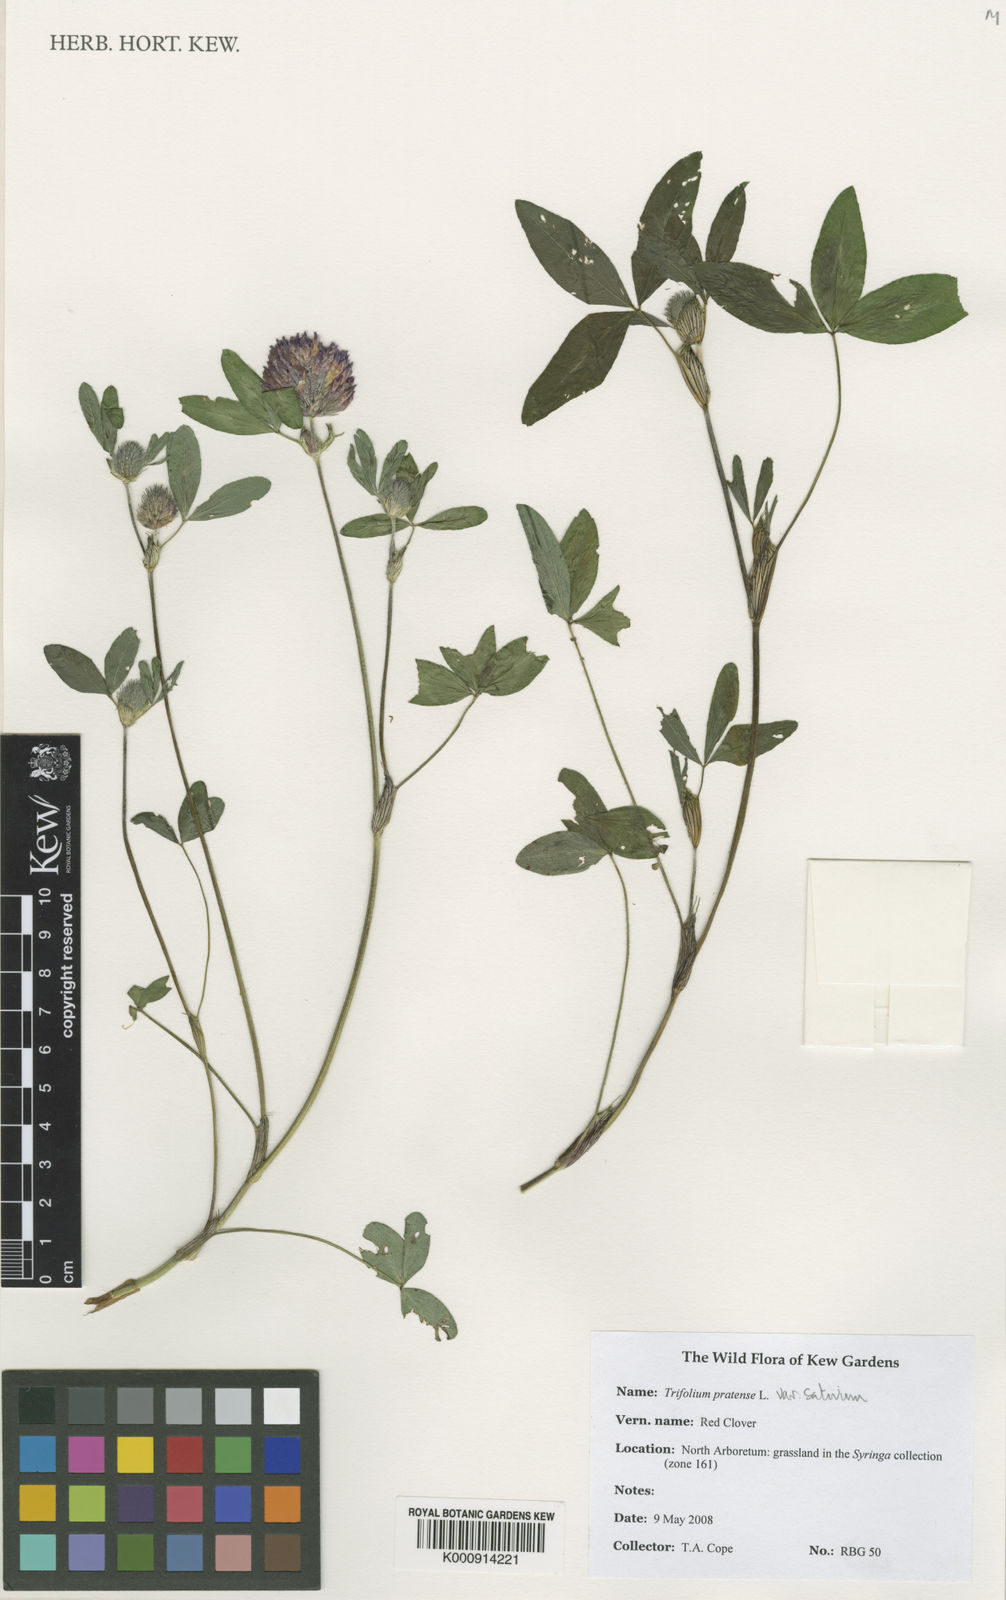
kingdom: Plantae
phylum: Tracheophyta
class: Magnoliopsida
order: Fabales
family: Fabaceae
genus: Trifolium
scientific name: Trifolium pratense
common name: Red clover
